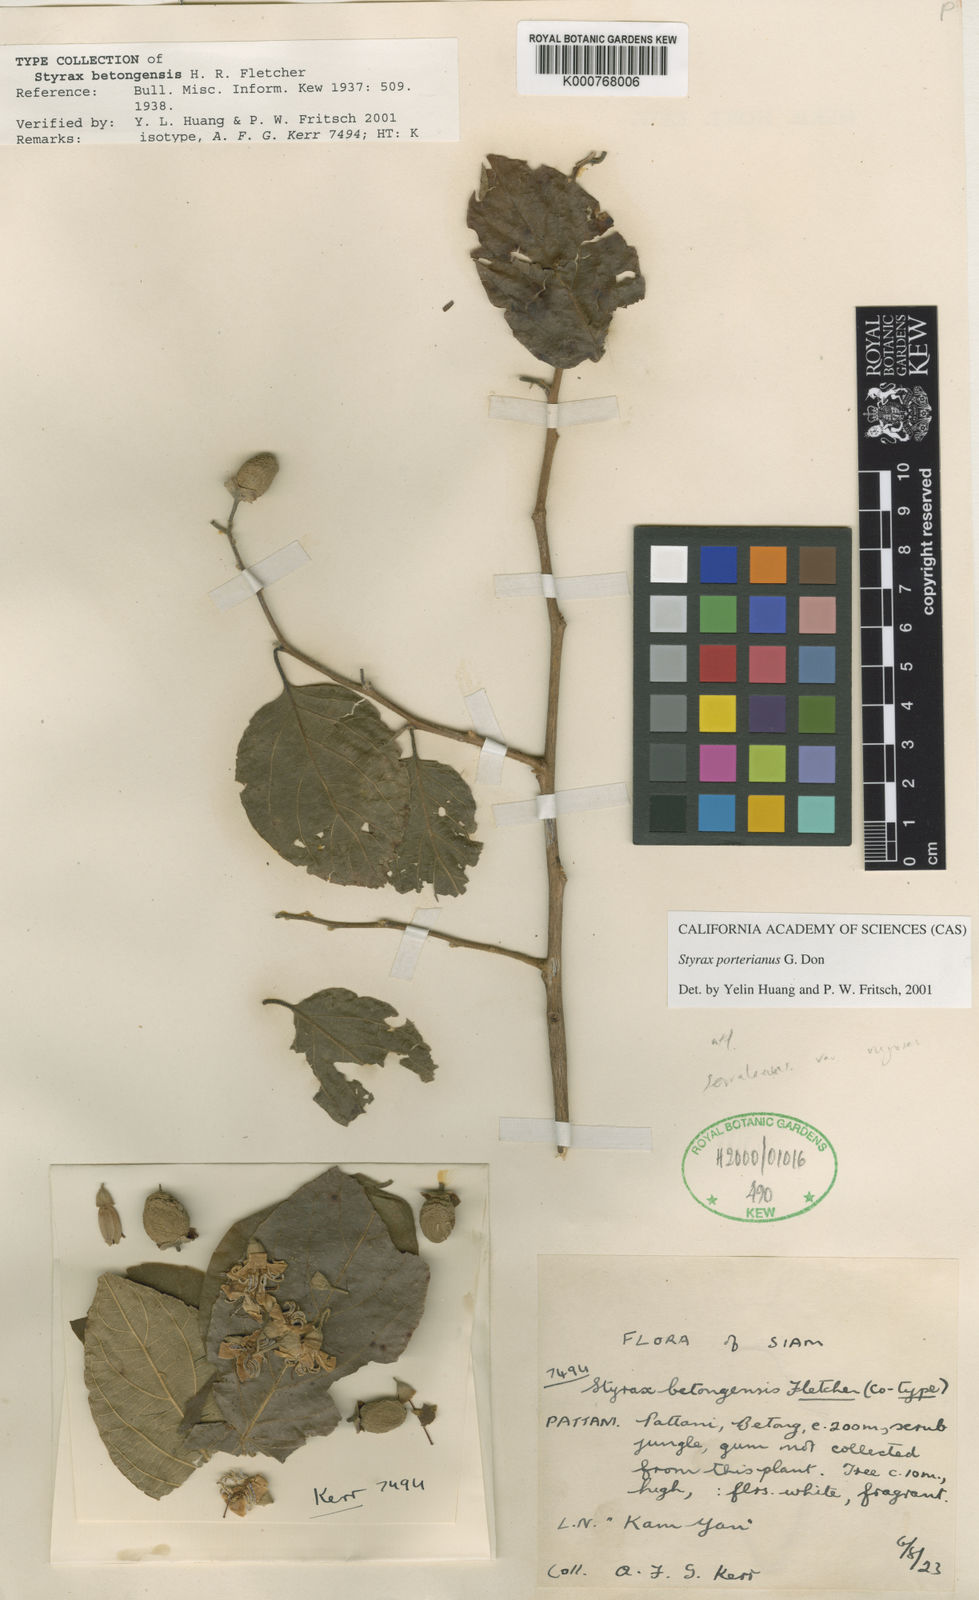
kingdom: Plantae
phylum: Tracheophyta
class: Magnoliopsida
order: Ericales
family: Styracaceae
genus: Styrax
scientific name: Styrax
